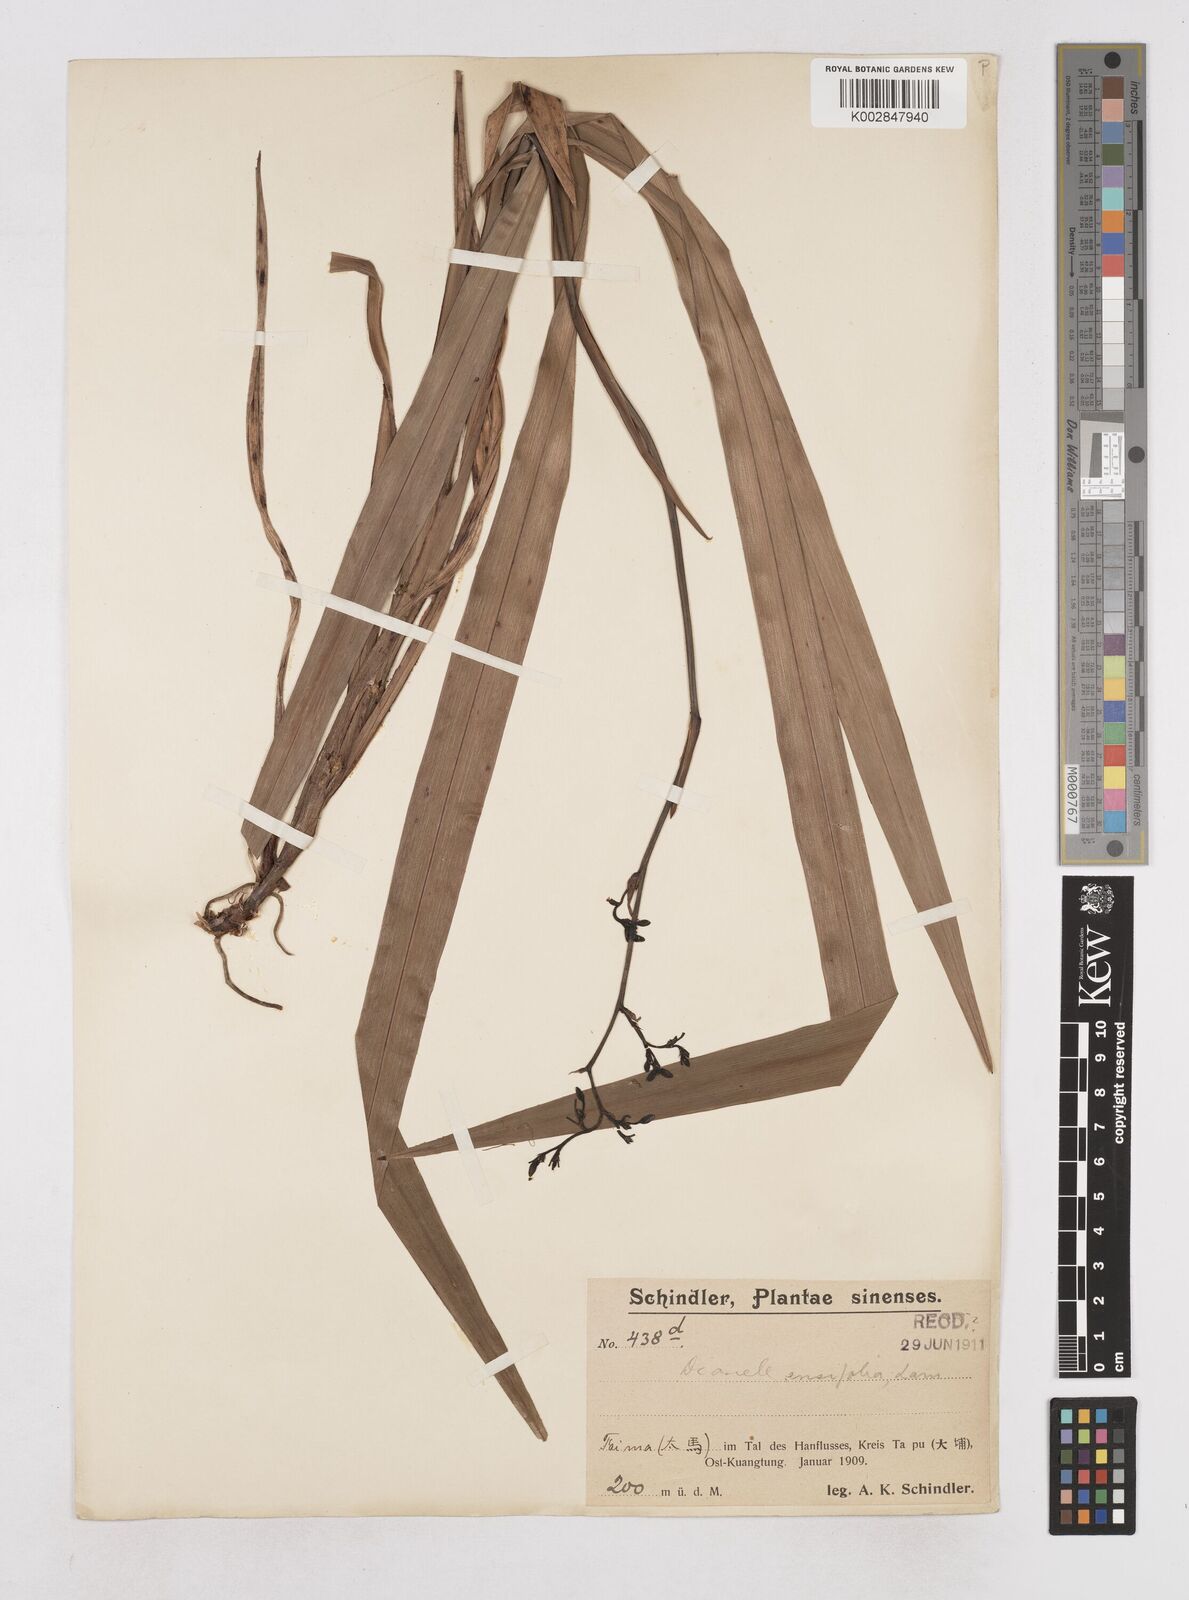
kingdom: Plantae
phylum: Tracheophyta
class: Liliopsida
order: Asparagales
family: Asphodelaceae
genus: Dianella
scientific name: Dianella ensifolia
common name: New zealand lilyplant
